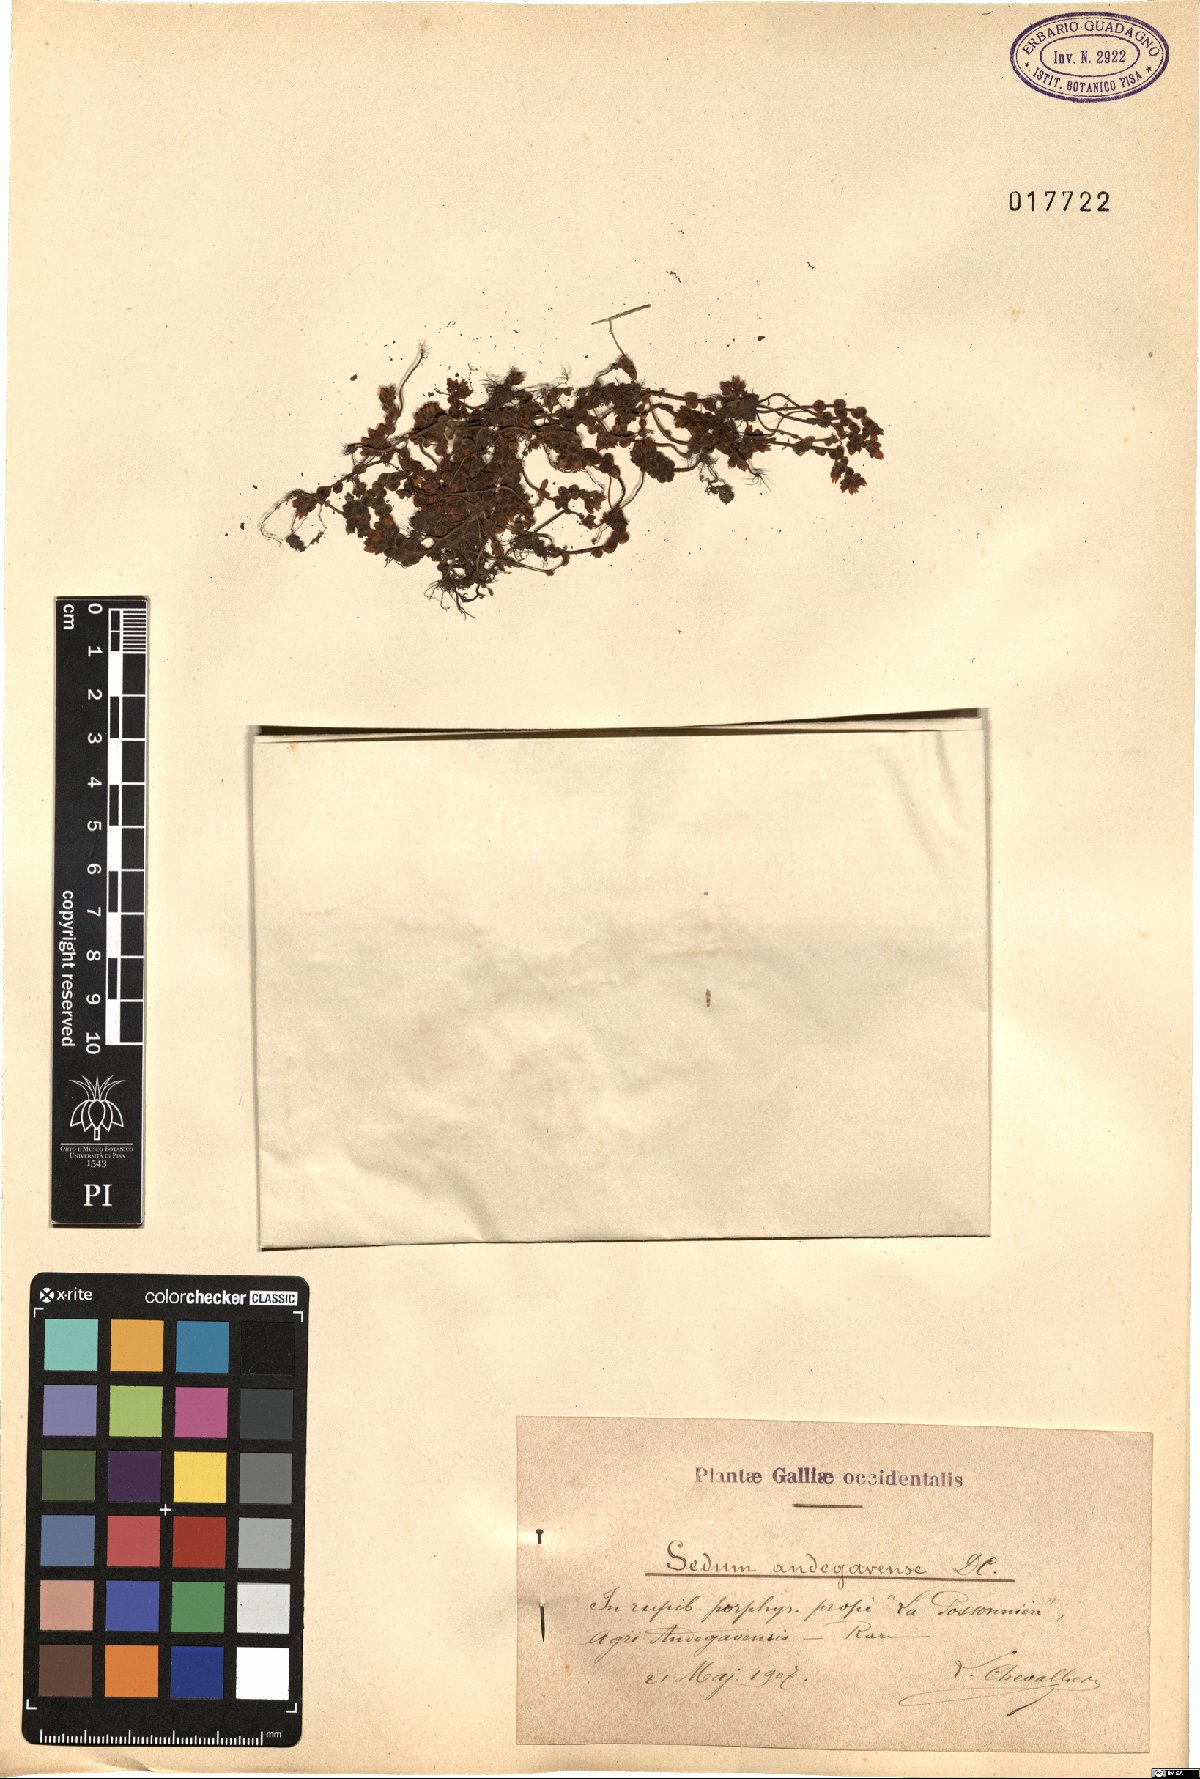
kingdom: Plantae
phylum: Tracheophyta
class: Magnoliopsida
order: Saxifragales
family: Crassulaceae
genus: Sedum
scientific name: Sedum andegavense
